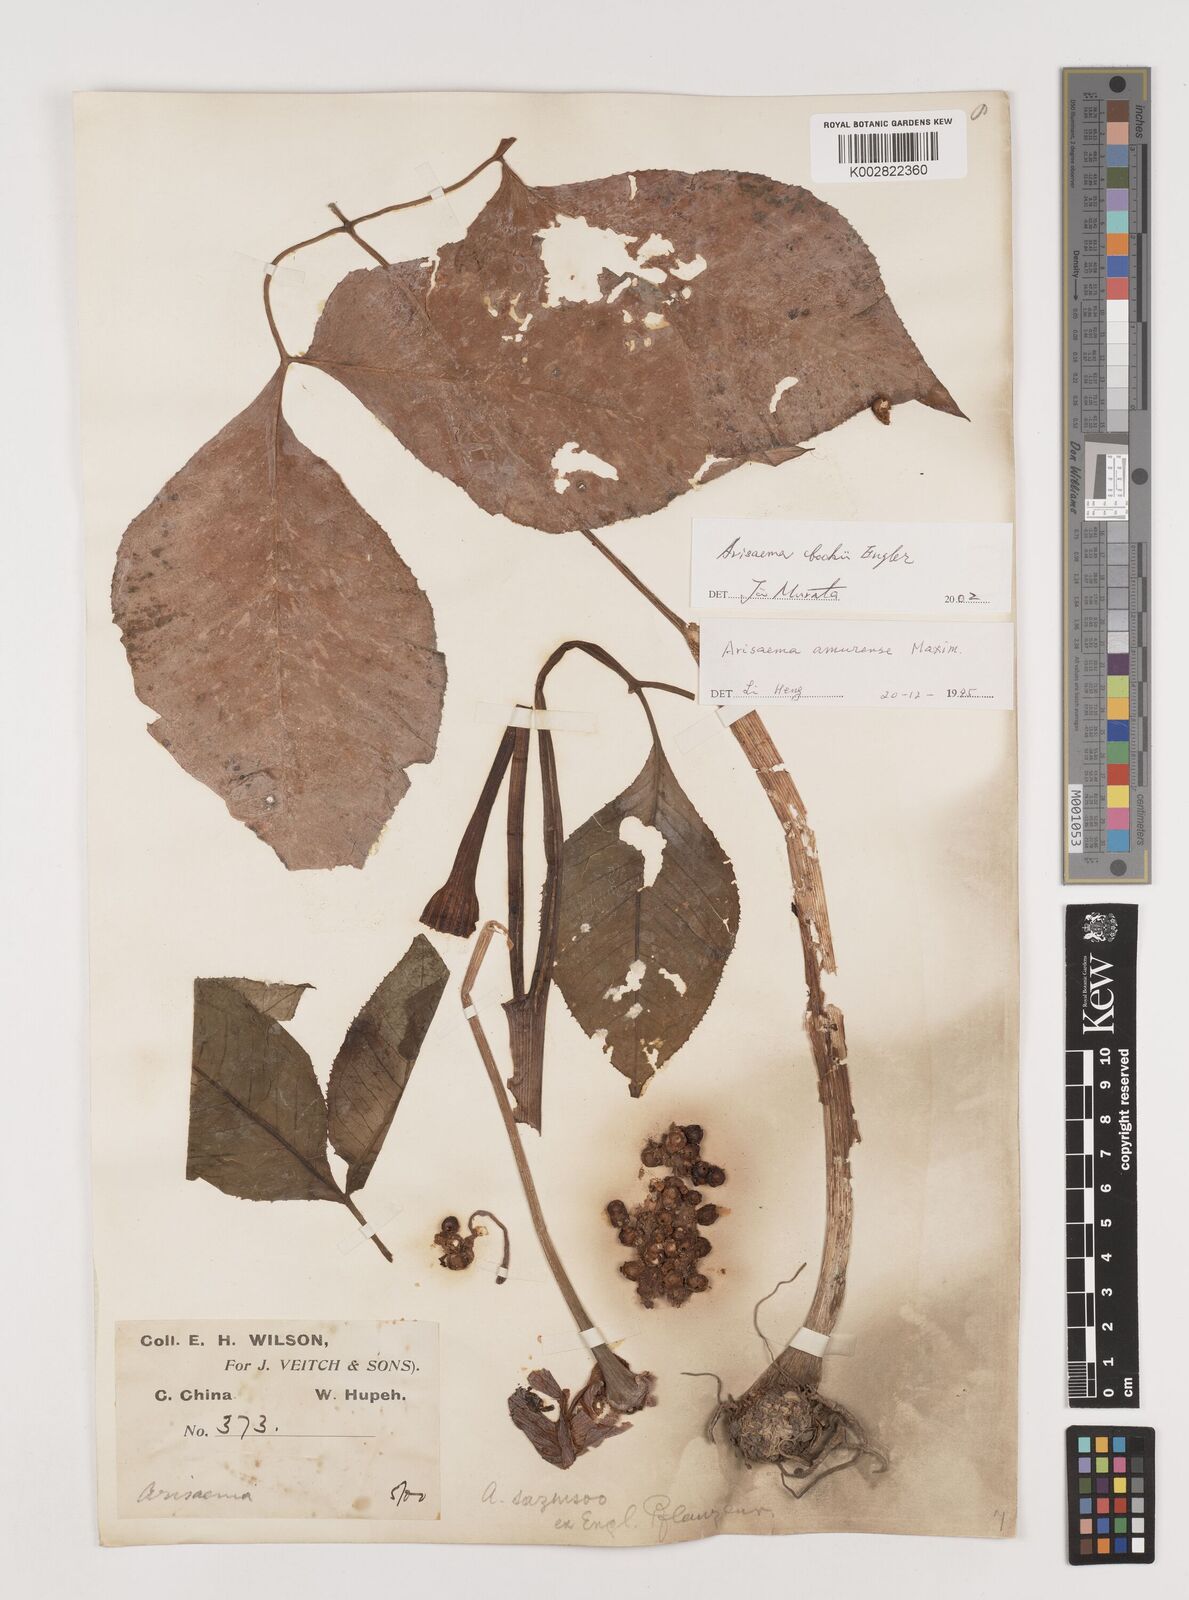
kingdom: Plantae
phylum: Tracheophyta
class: Liliopsida
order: Alismatales
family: Araceae
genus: Arisaema
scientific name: Arisaema bockii
